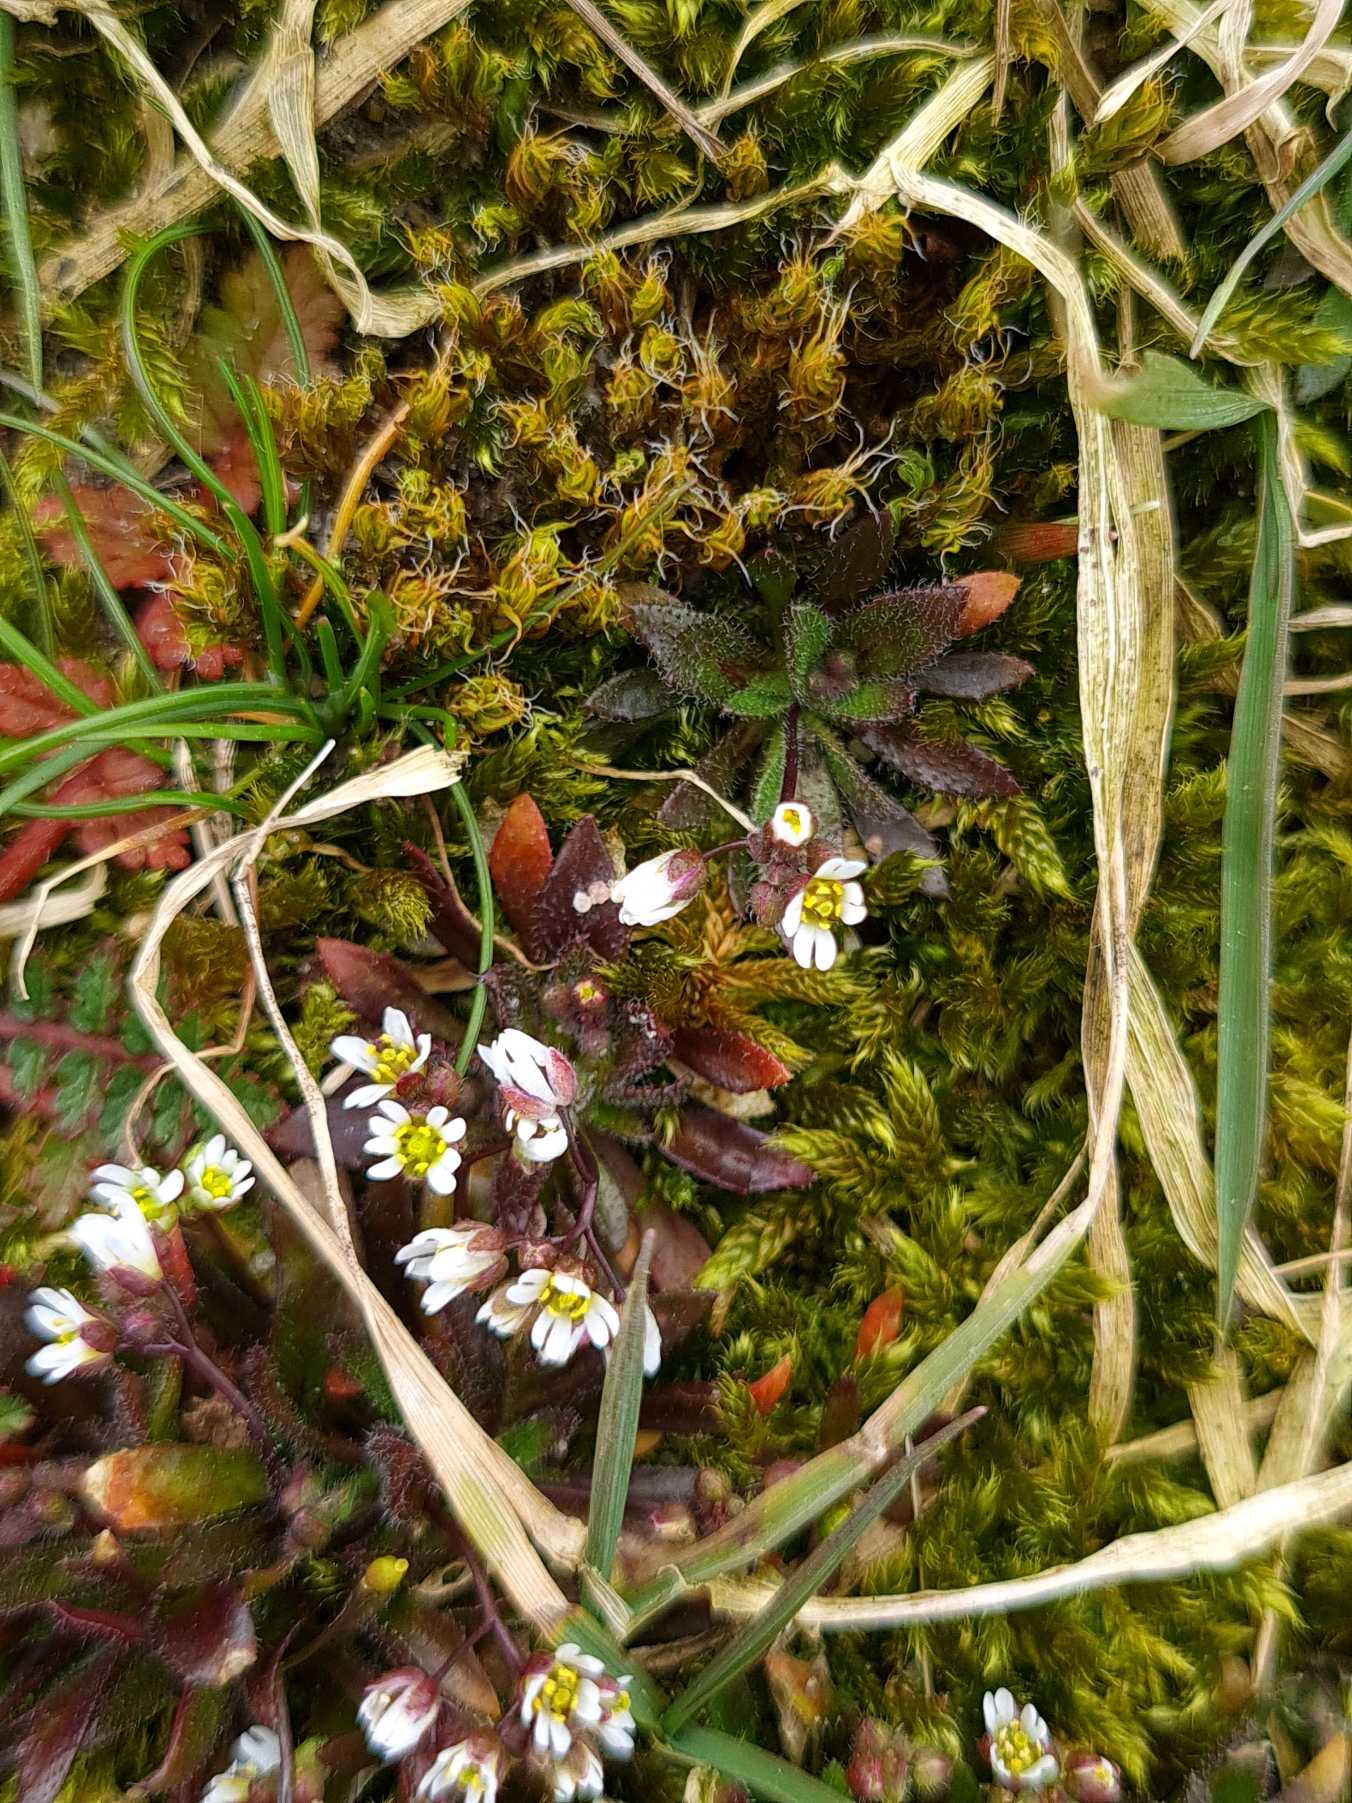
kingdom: Plantae
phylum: Tracheophyta
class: Magnoliopsida
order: Brassicales
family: Brassicaceae
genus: Draba
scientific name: Draba verna
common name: Vår-gæslingeblomst
